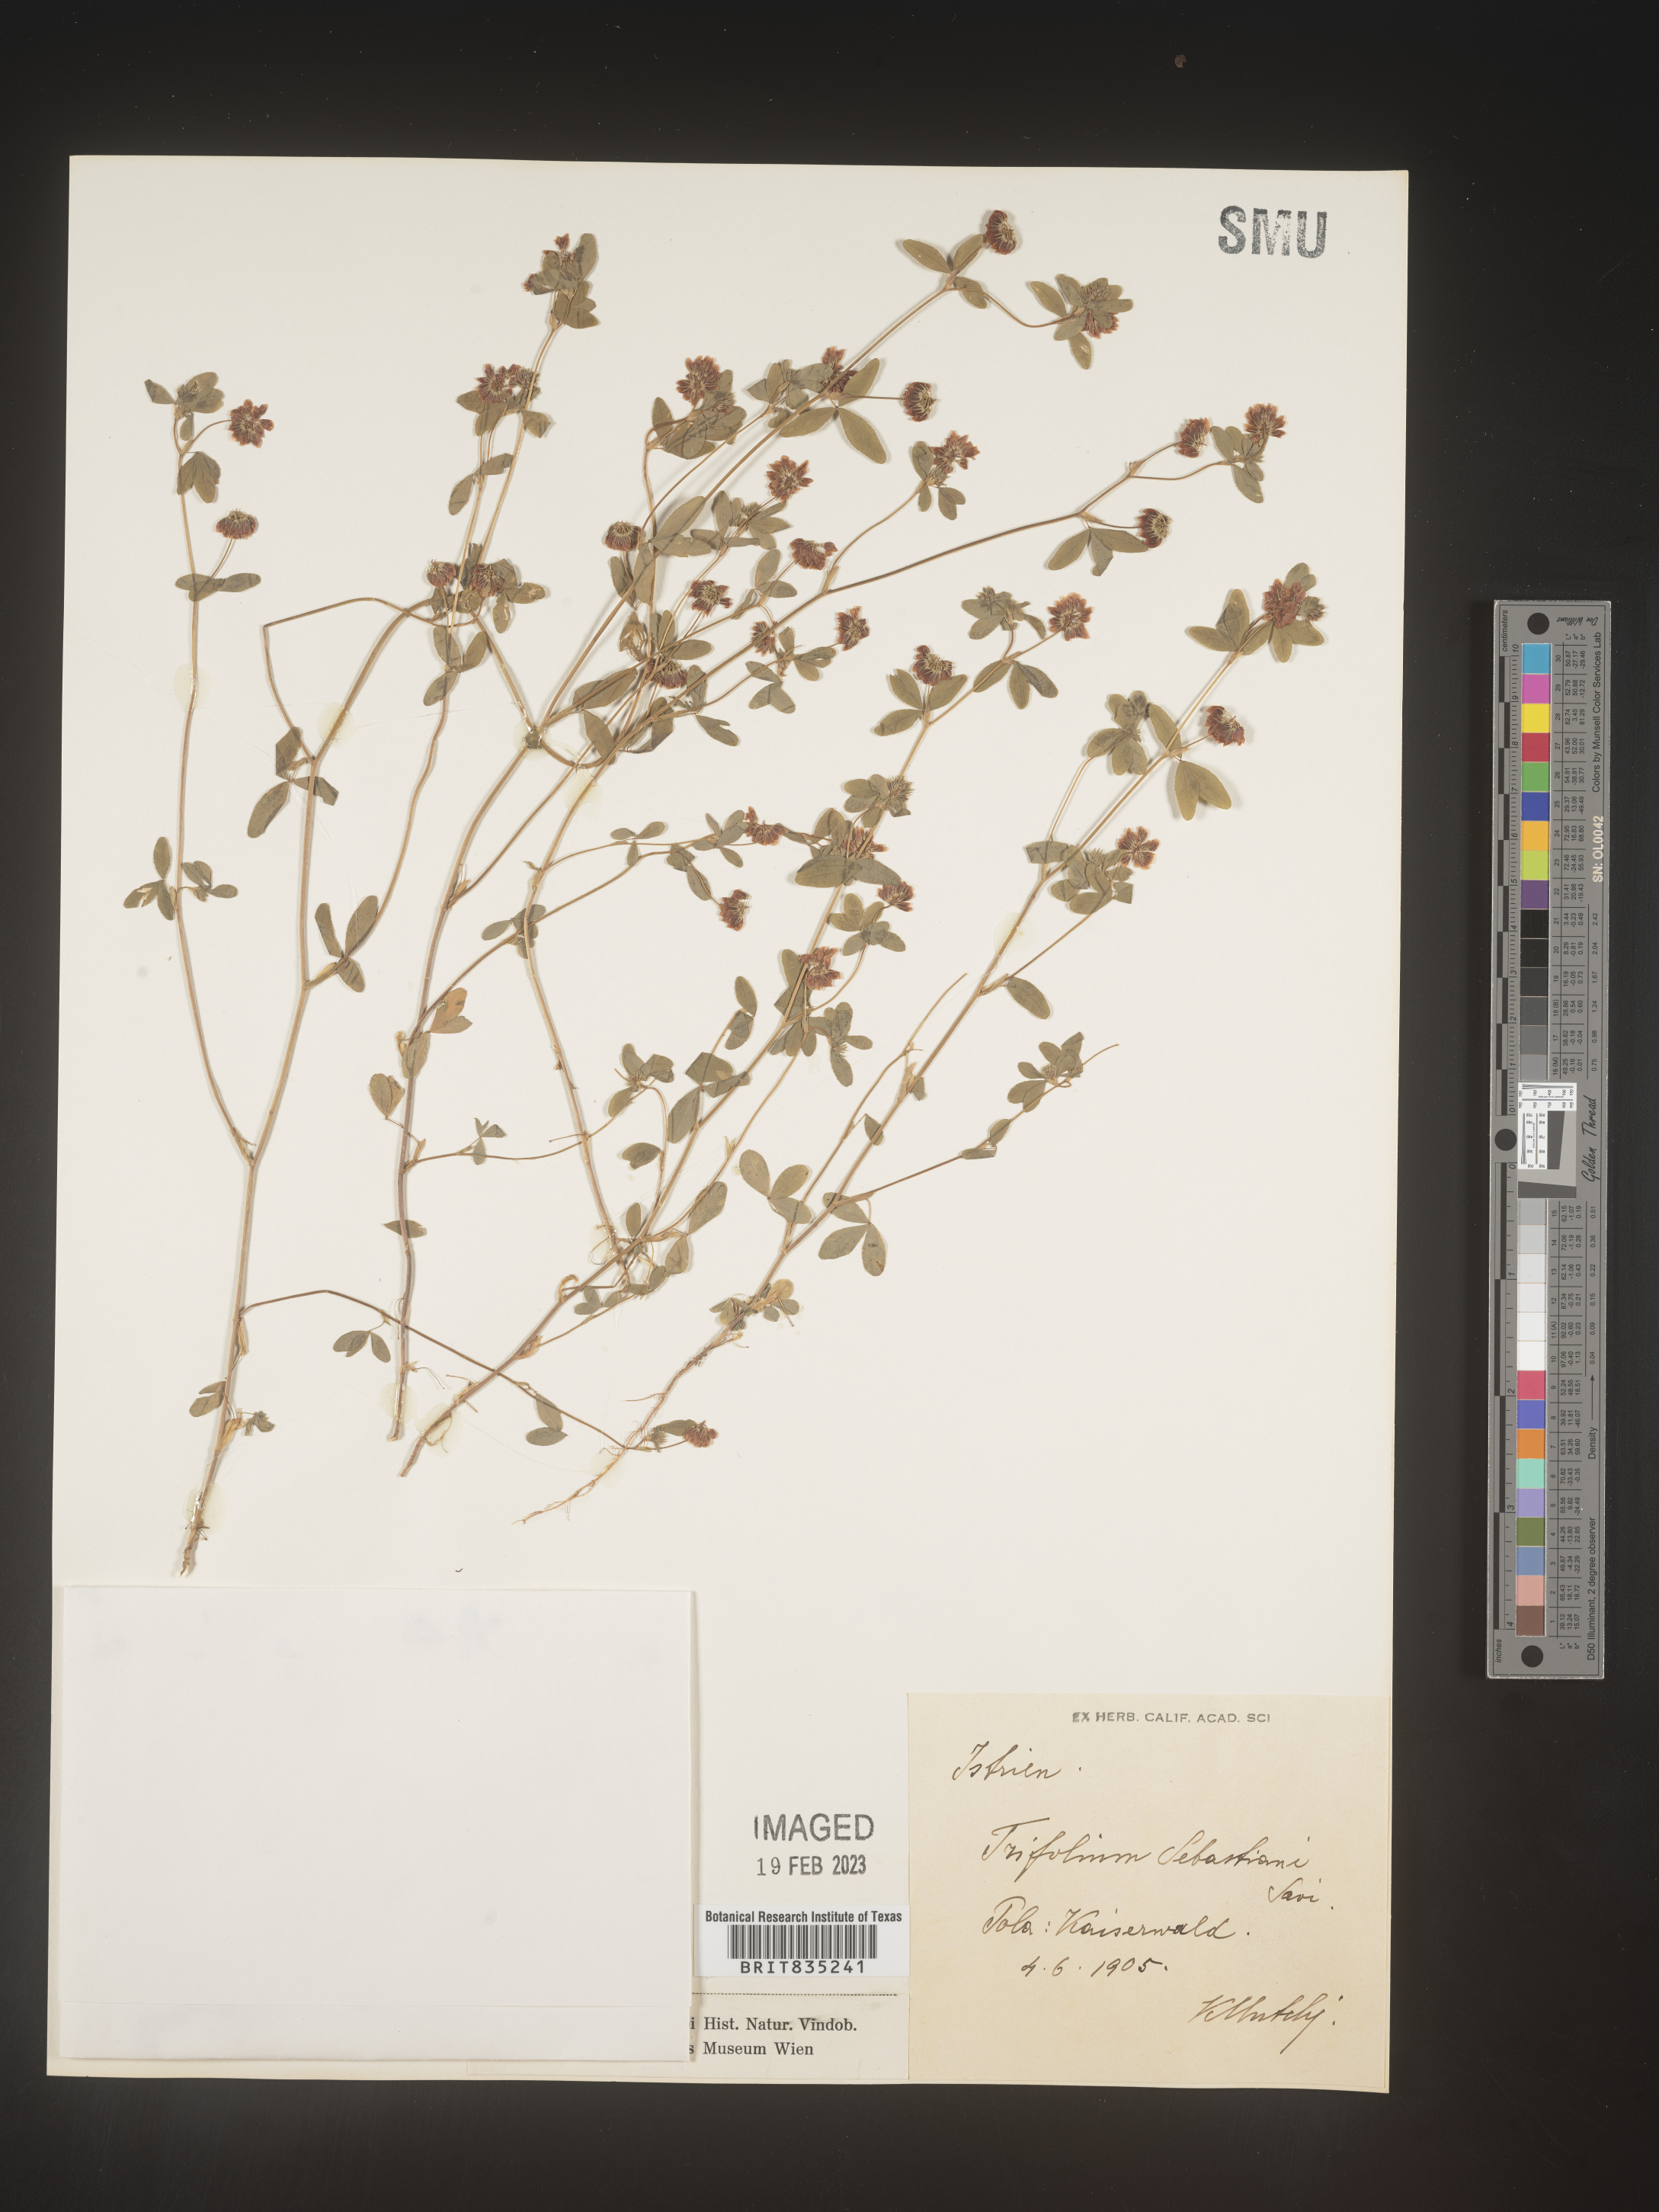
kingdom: Plantae
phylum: Tracheophyta
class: Magnoliopsida
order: Fabales
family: Fabaceae
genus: Trifolium
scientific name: Trifolium
